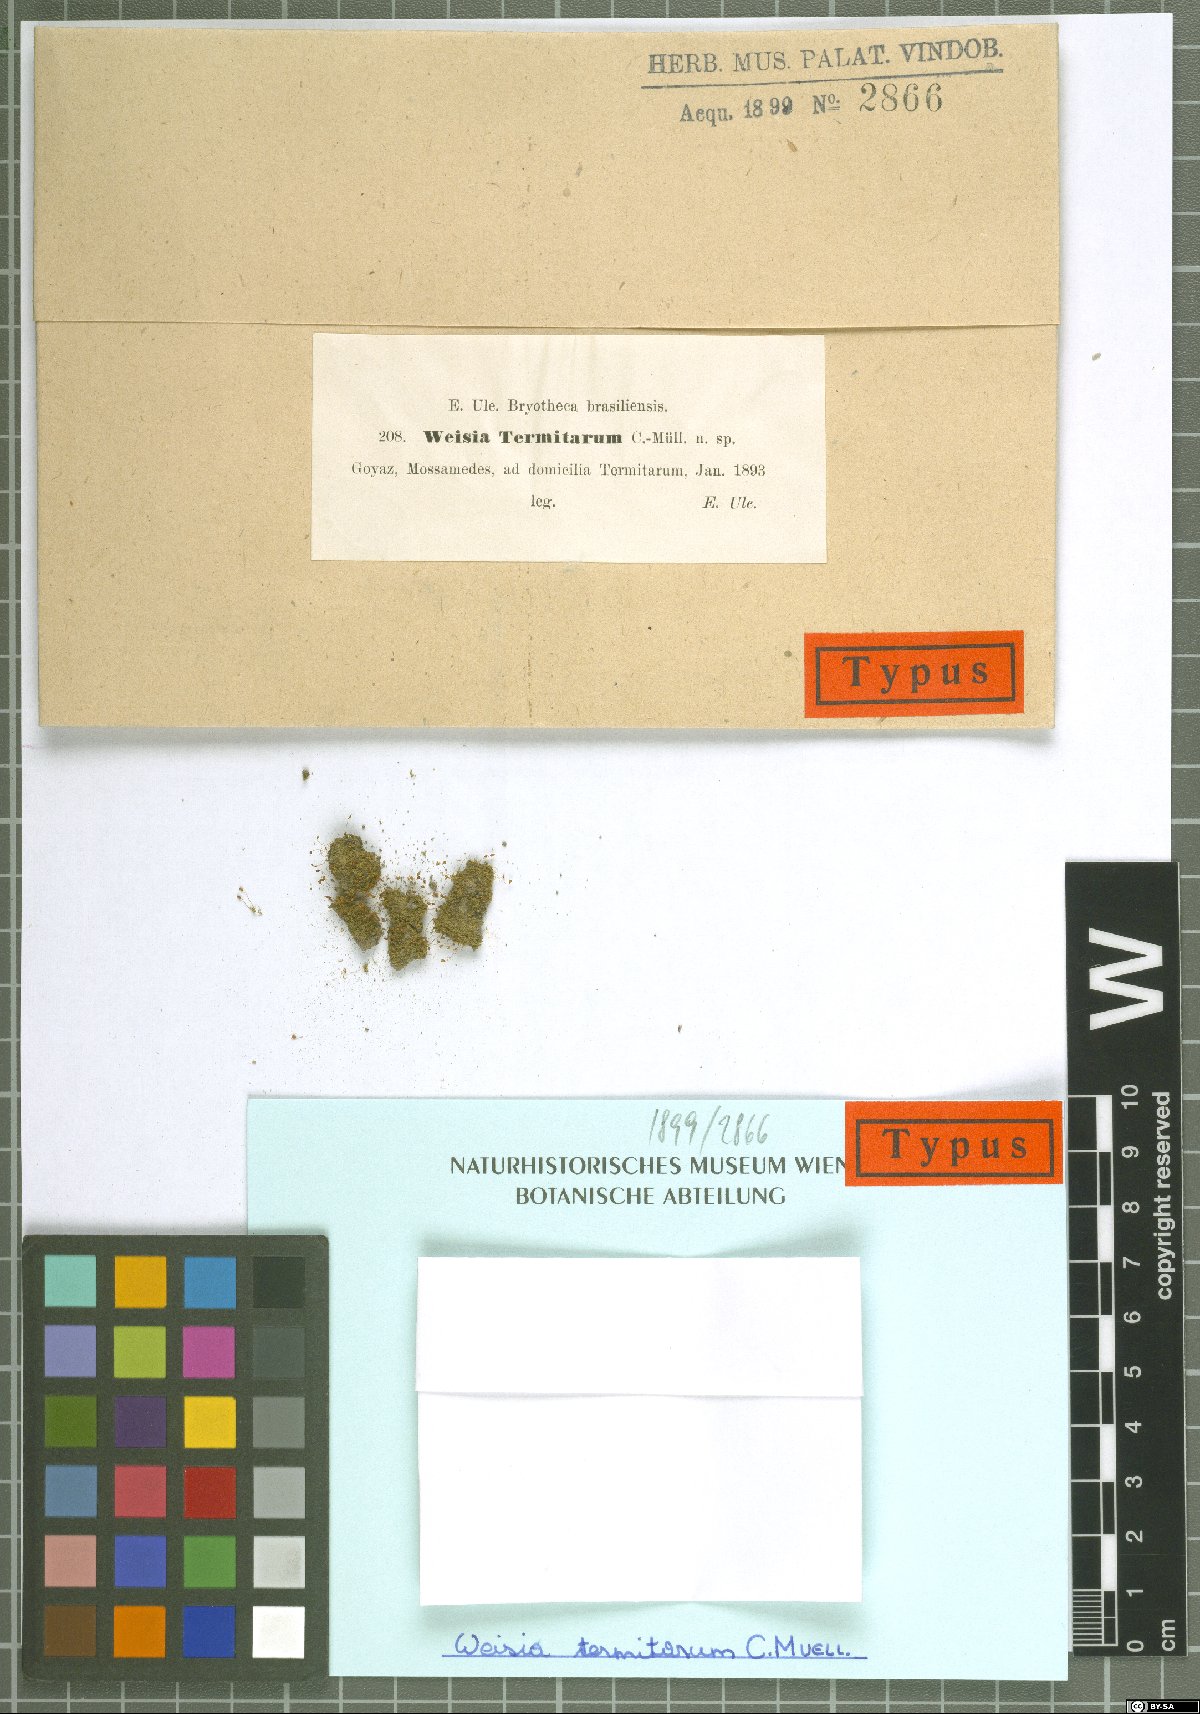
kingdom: Plantae
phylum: Bryophyta
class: Bryopsida
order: Pottiales
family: Pottiaceae
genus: Trichostomum
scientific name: Trichostomum termitarum
